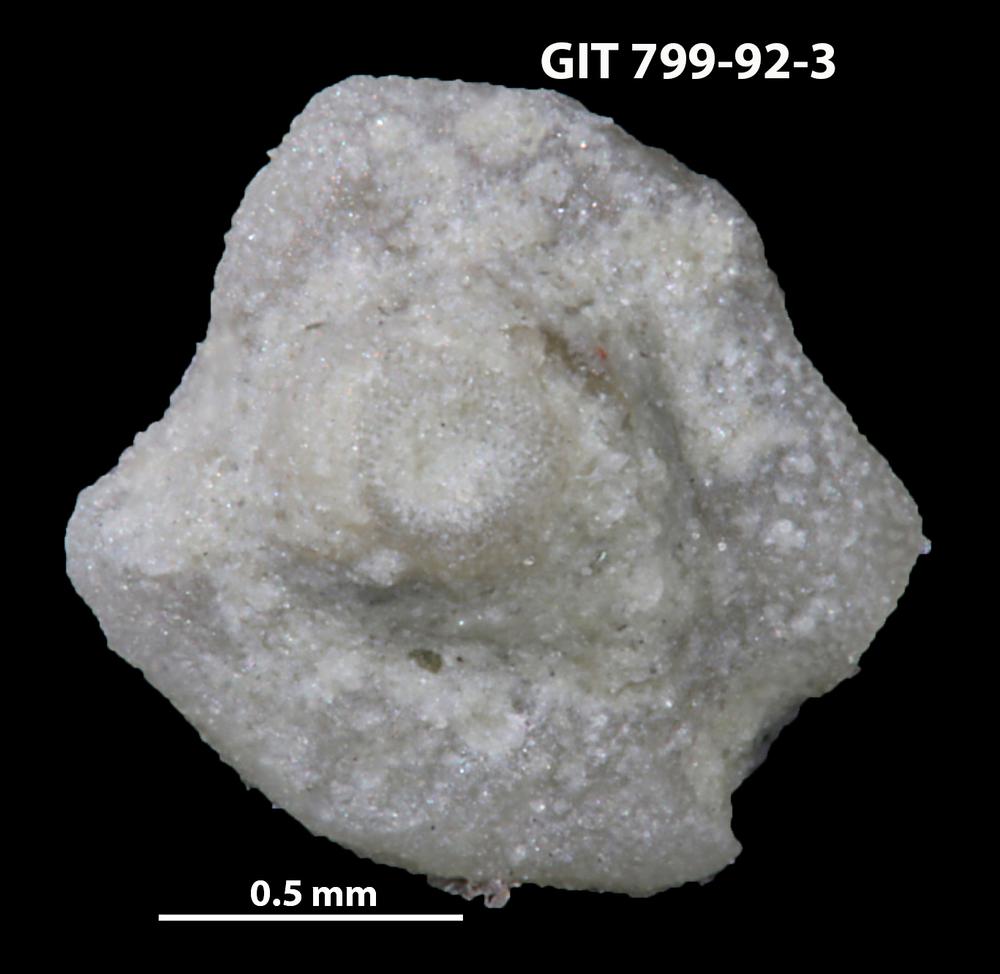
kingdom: Animalia
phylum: Echinodermata
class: Echinoidea
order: Bothriocidaroida
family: Bothriocidaridae
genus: Neobothriocidaris
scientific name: Neobothriocidaris
